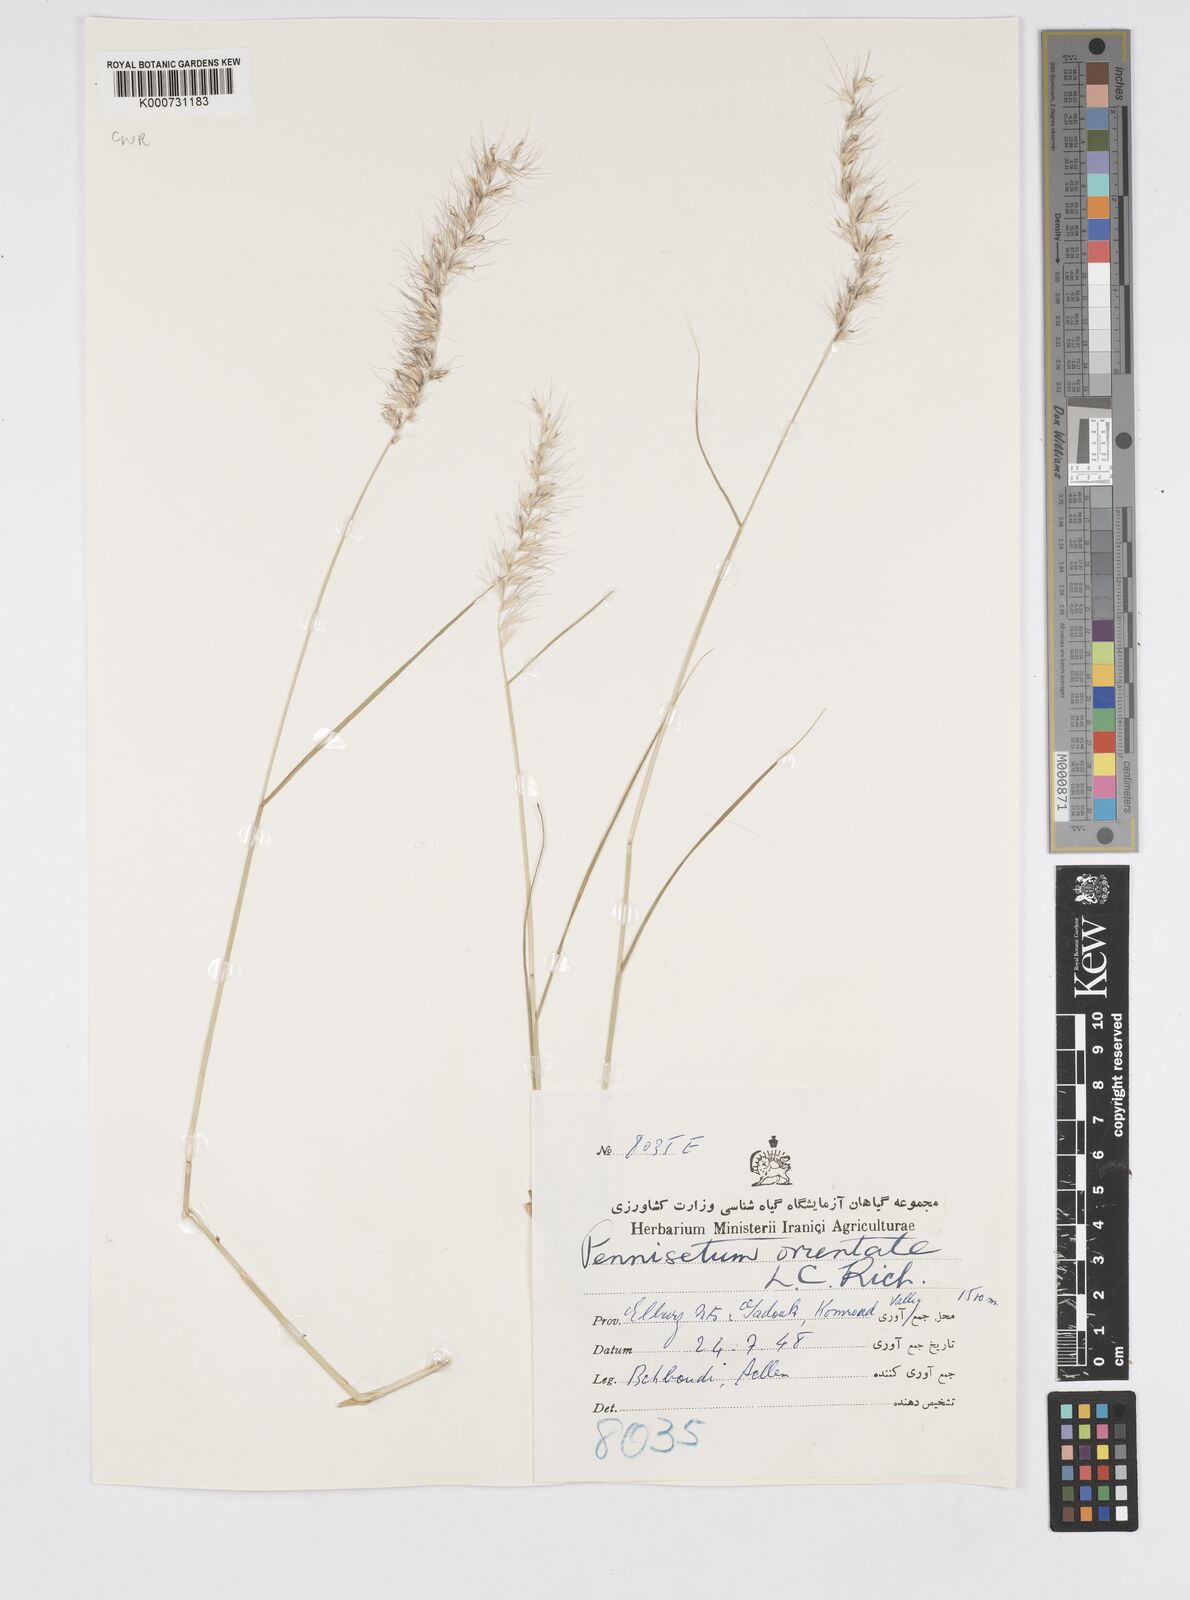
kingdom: Plantae
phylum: Tracheophyta
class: Liliopsida
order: Poales
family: Poaceae
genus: Cenchrus
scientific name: Cenchrus orientalis
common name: Oriental fountain grass
